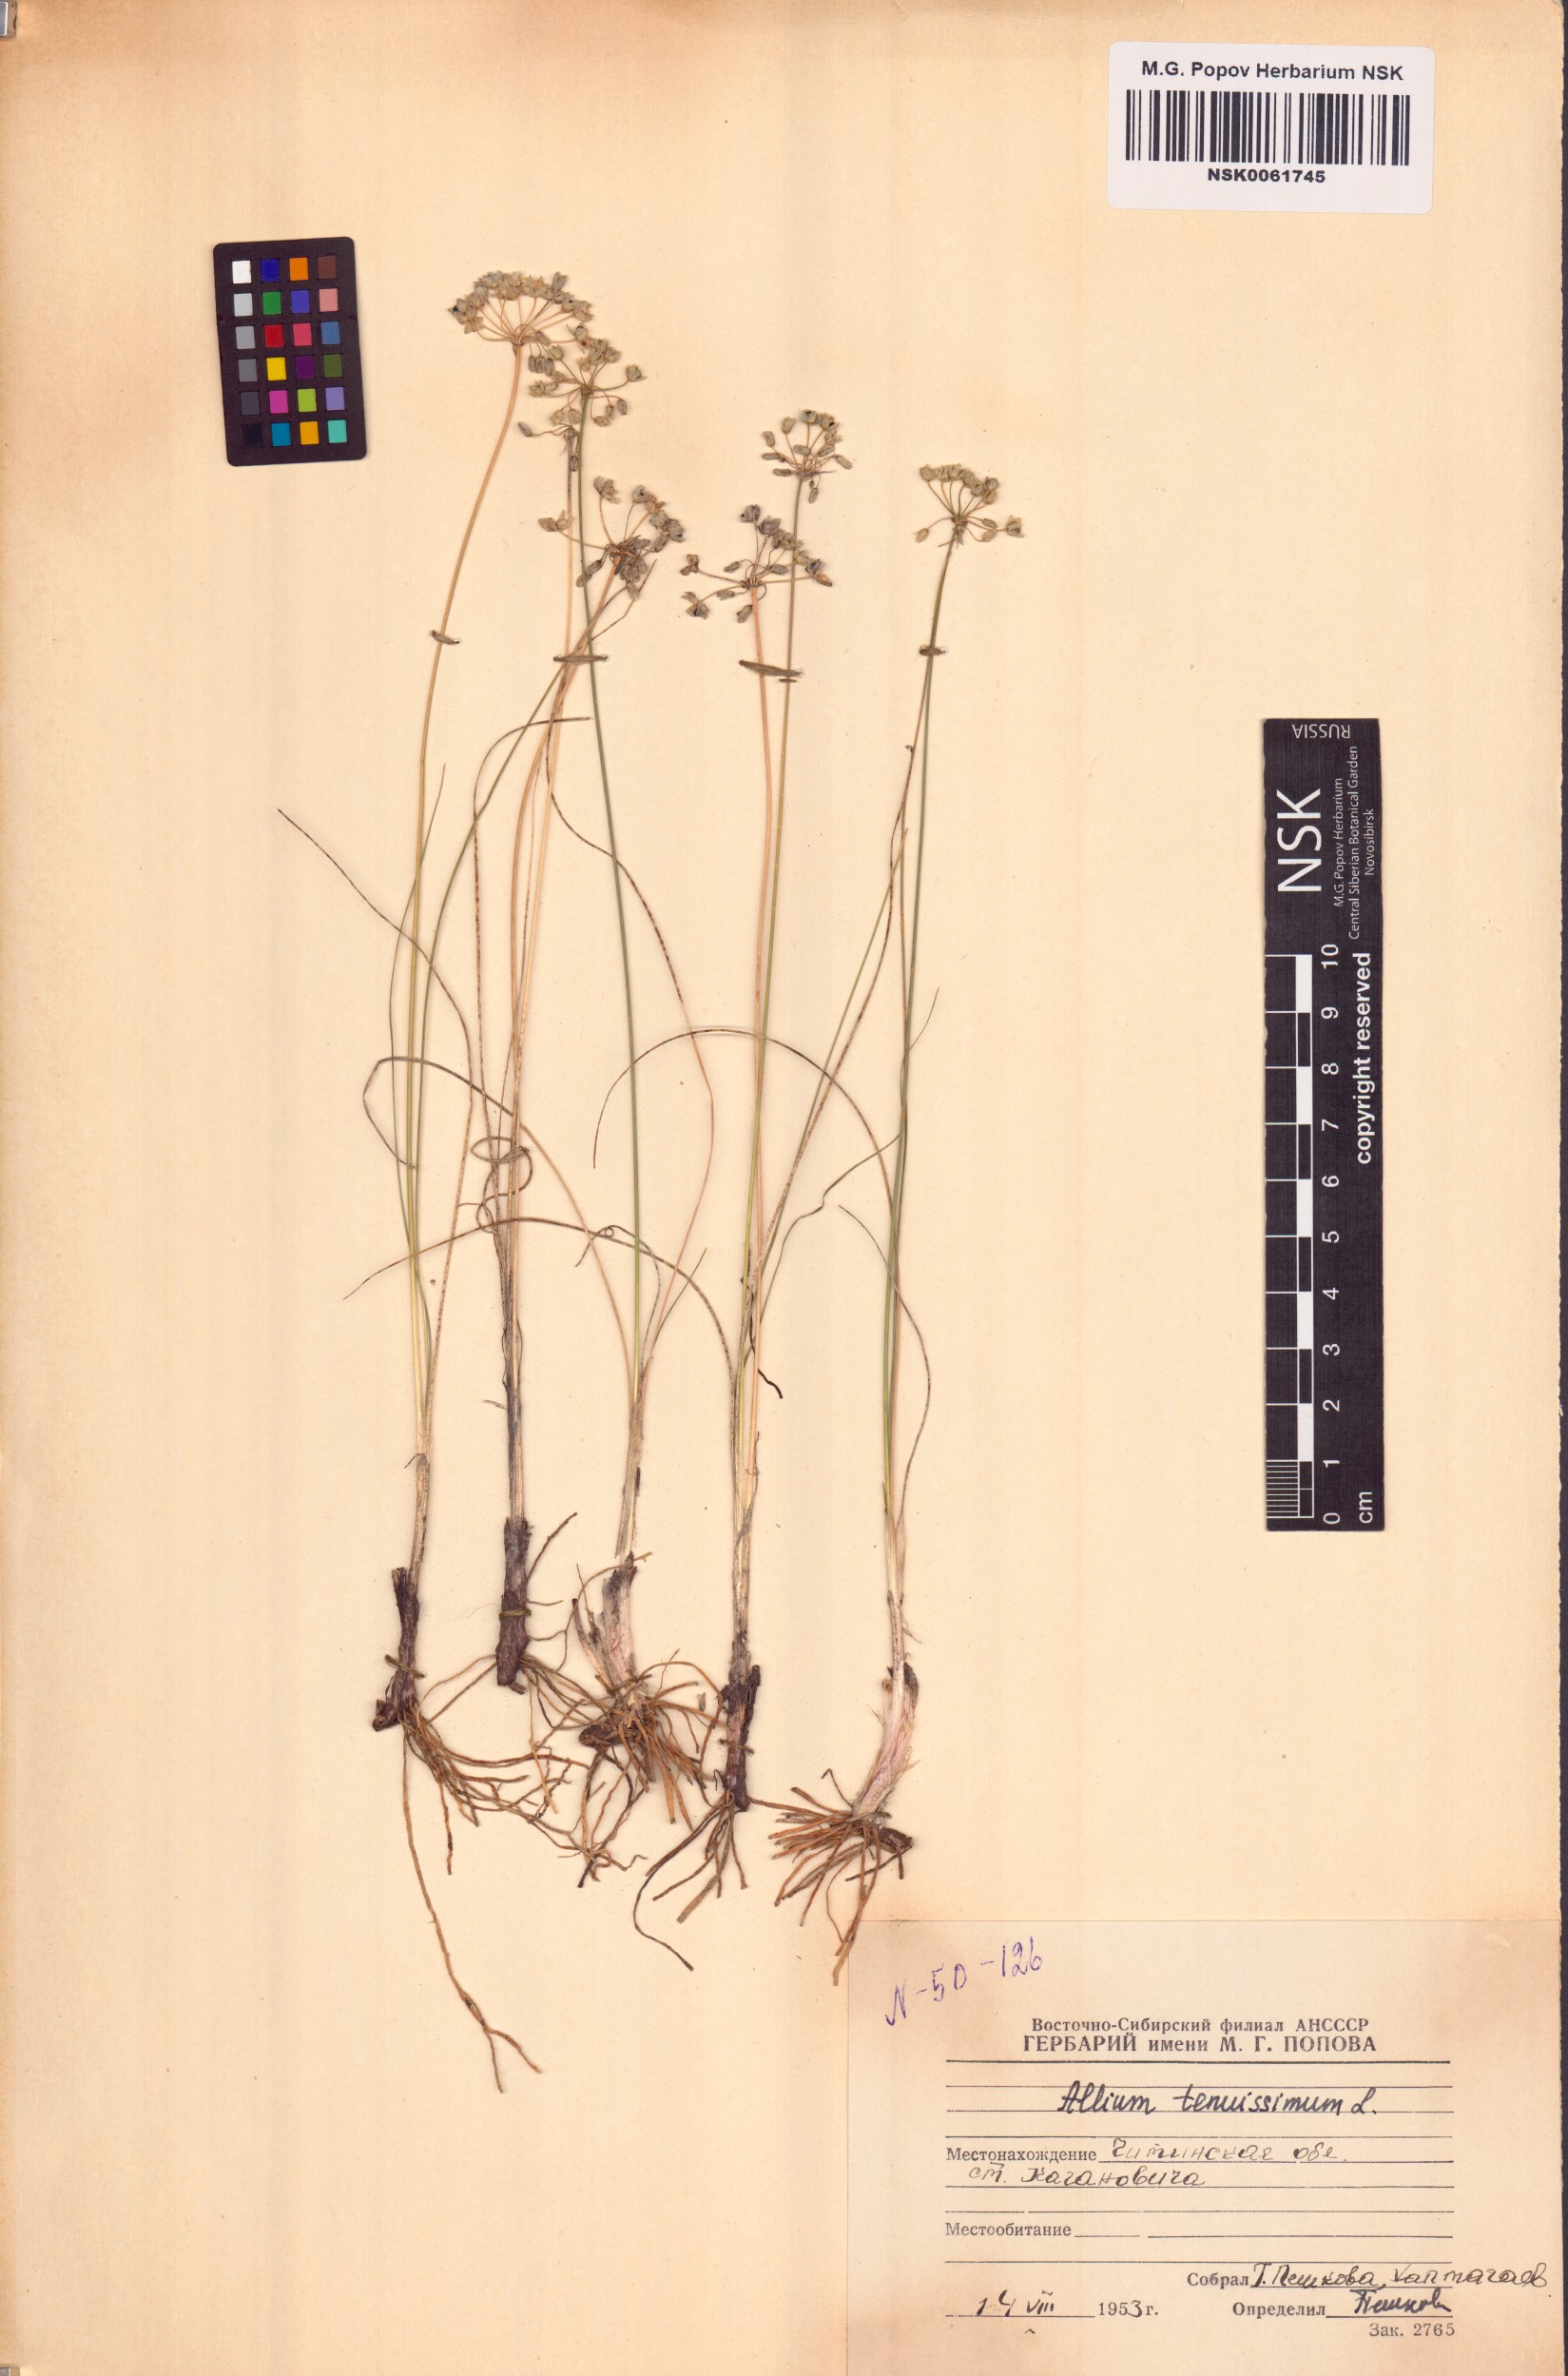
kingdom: Plantae
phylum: Tracheophyta
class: Liliopsida
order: Asparagales
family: Amaryllidaceae
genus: Allium
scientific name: Allium tenuissimum
